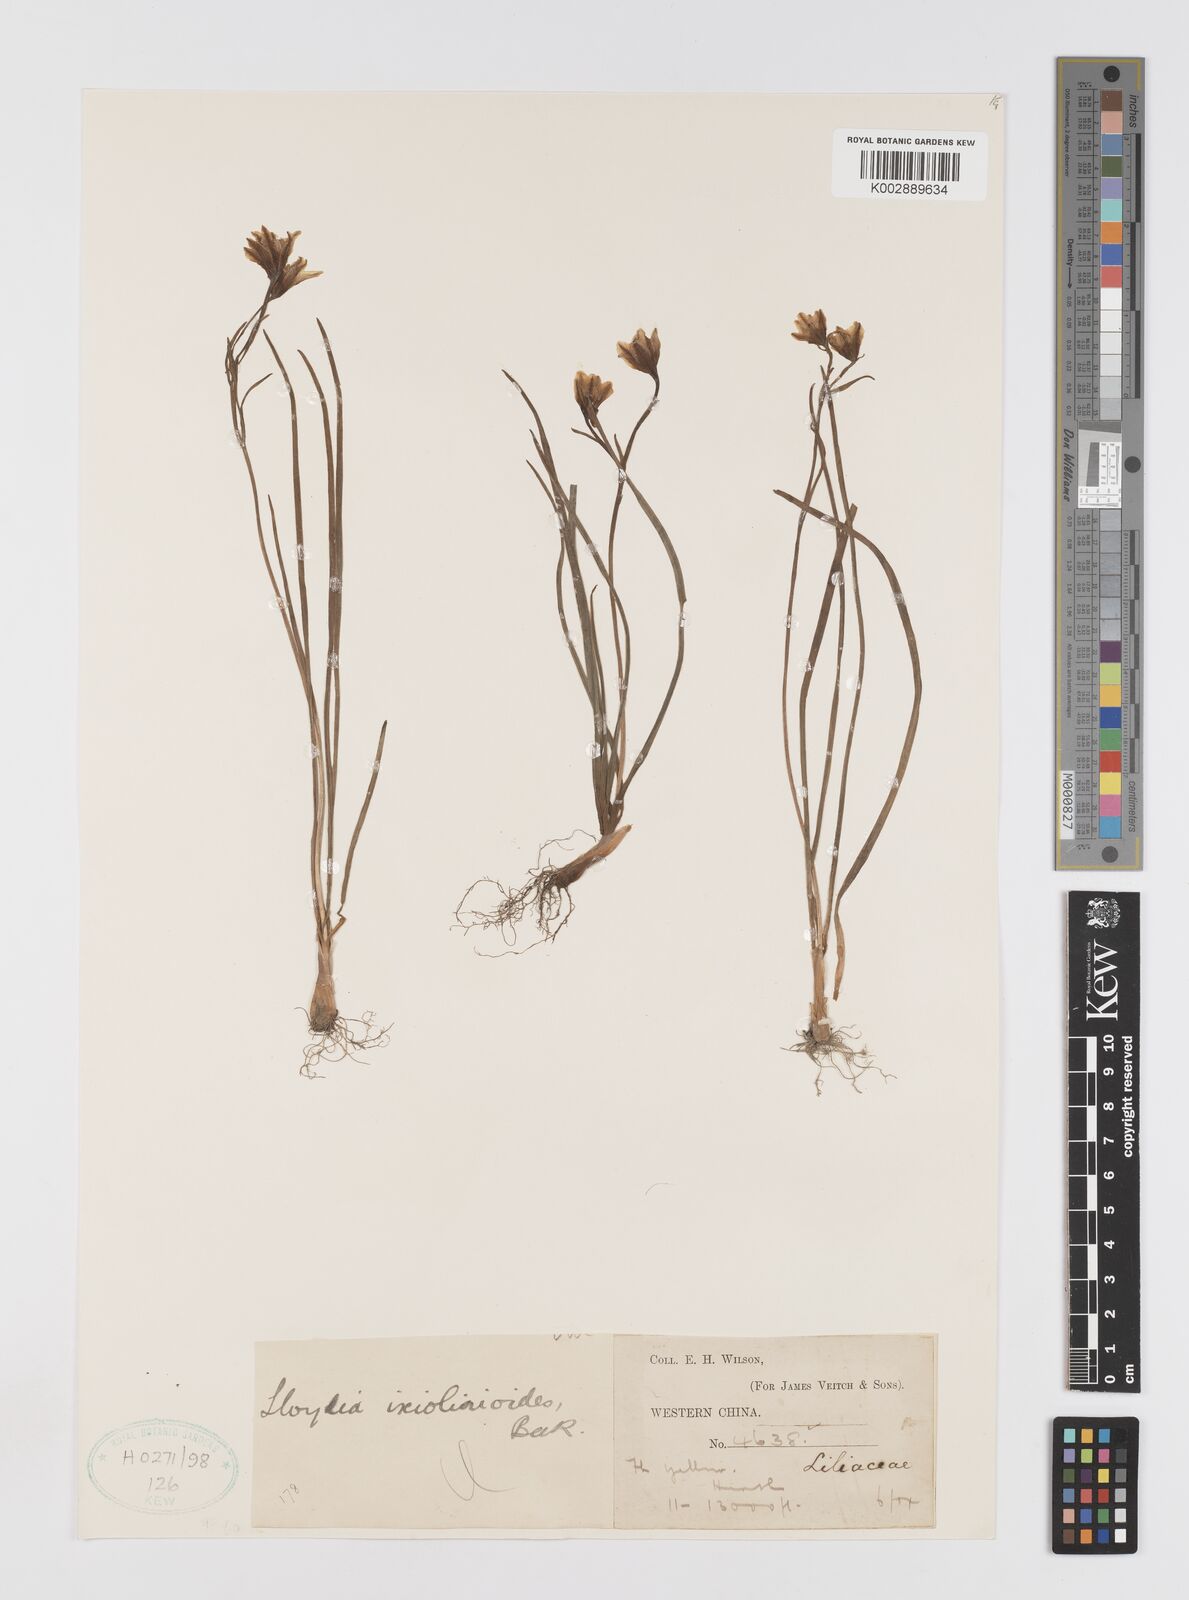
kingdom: Plantae
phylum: Tracheophyta
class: Liliopsida
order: Liliales
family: Liliaceae
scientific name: Liliaceae
